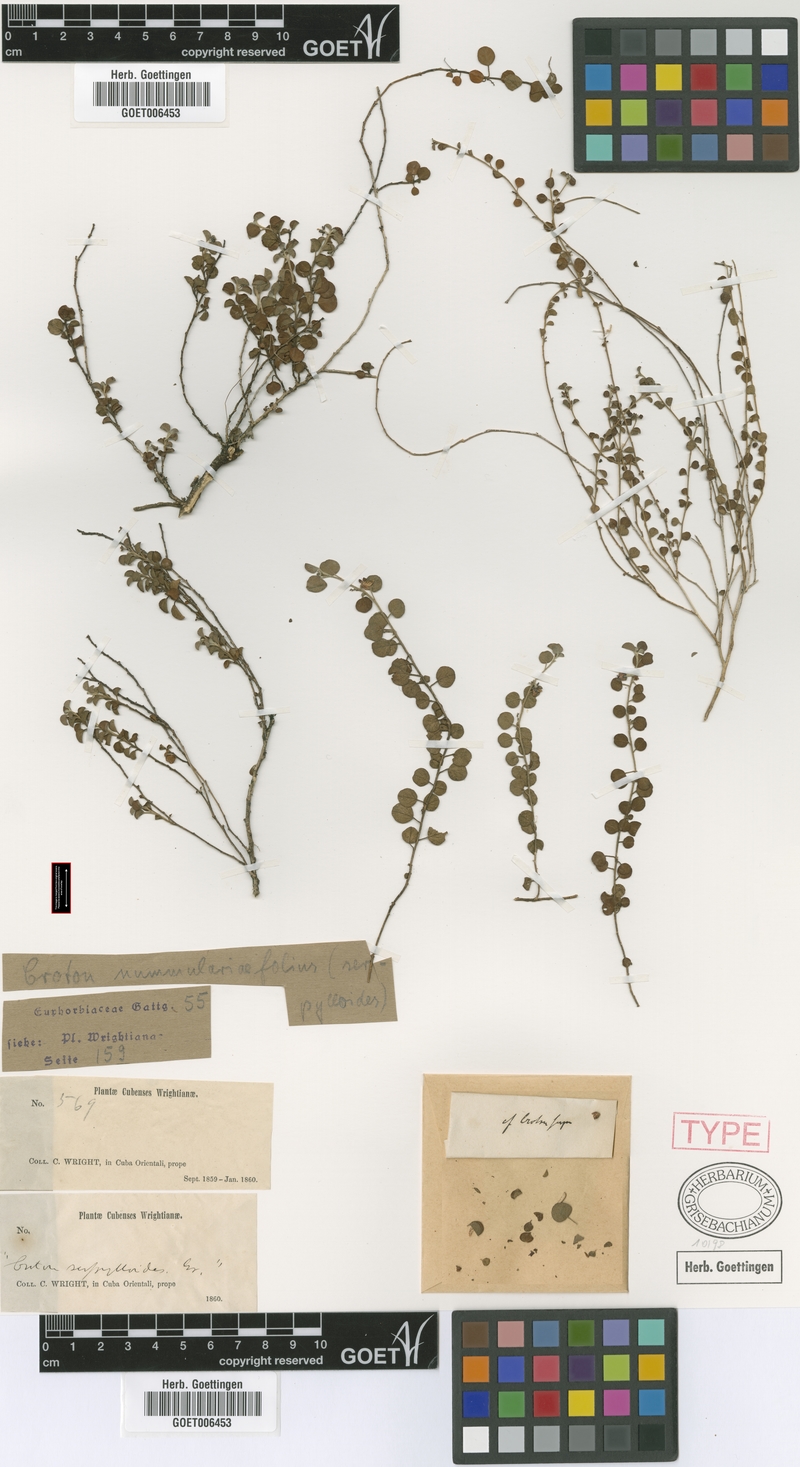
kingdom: Plantae
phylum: Tracheophyta
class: Magnoliopsida
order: Malpighiales
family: Euphorbiaceae
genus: Croton
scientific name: Croton microcarpus
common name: Money croton
